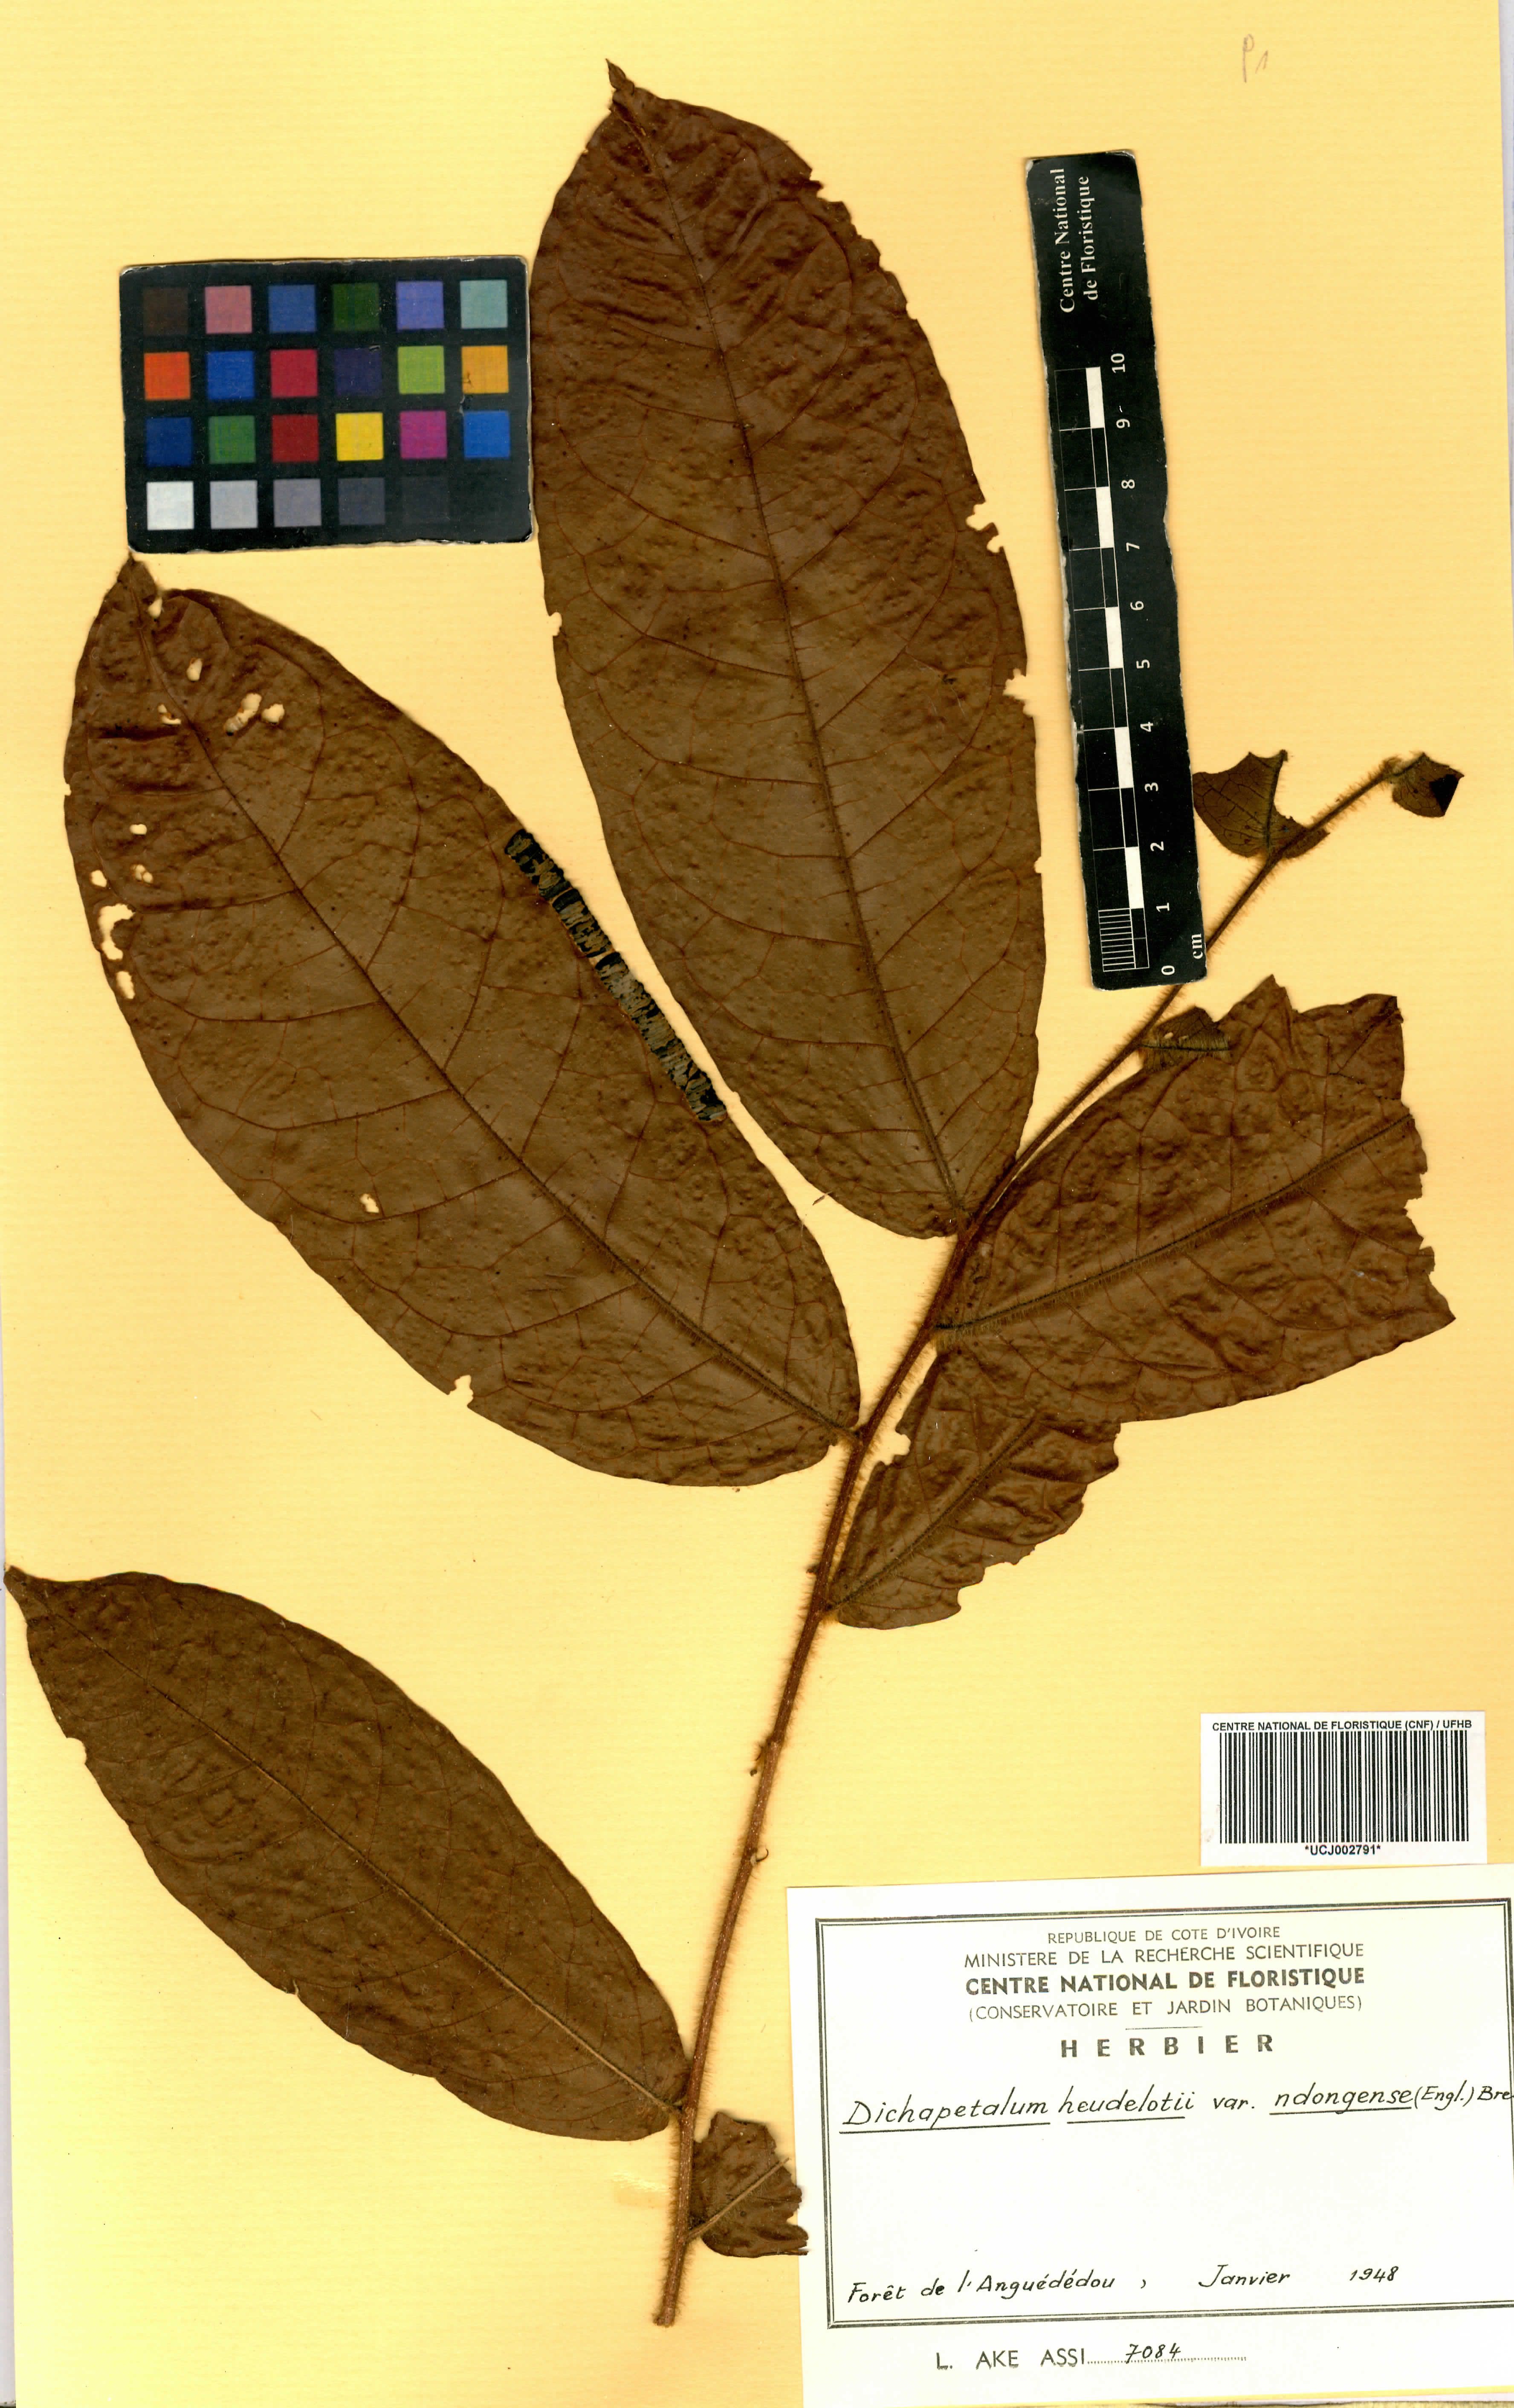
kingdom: Plantae
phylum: Tracheophyta
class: Magnoliopsida
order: Malpighiales
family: Dichapetalaceae
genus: Dichapetalum
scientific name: Dichapetalum heudelotii
